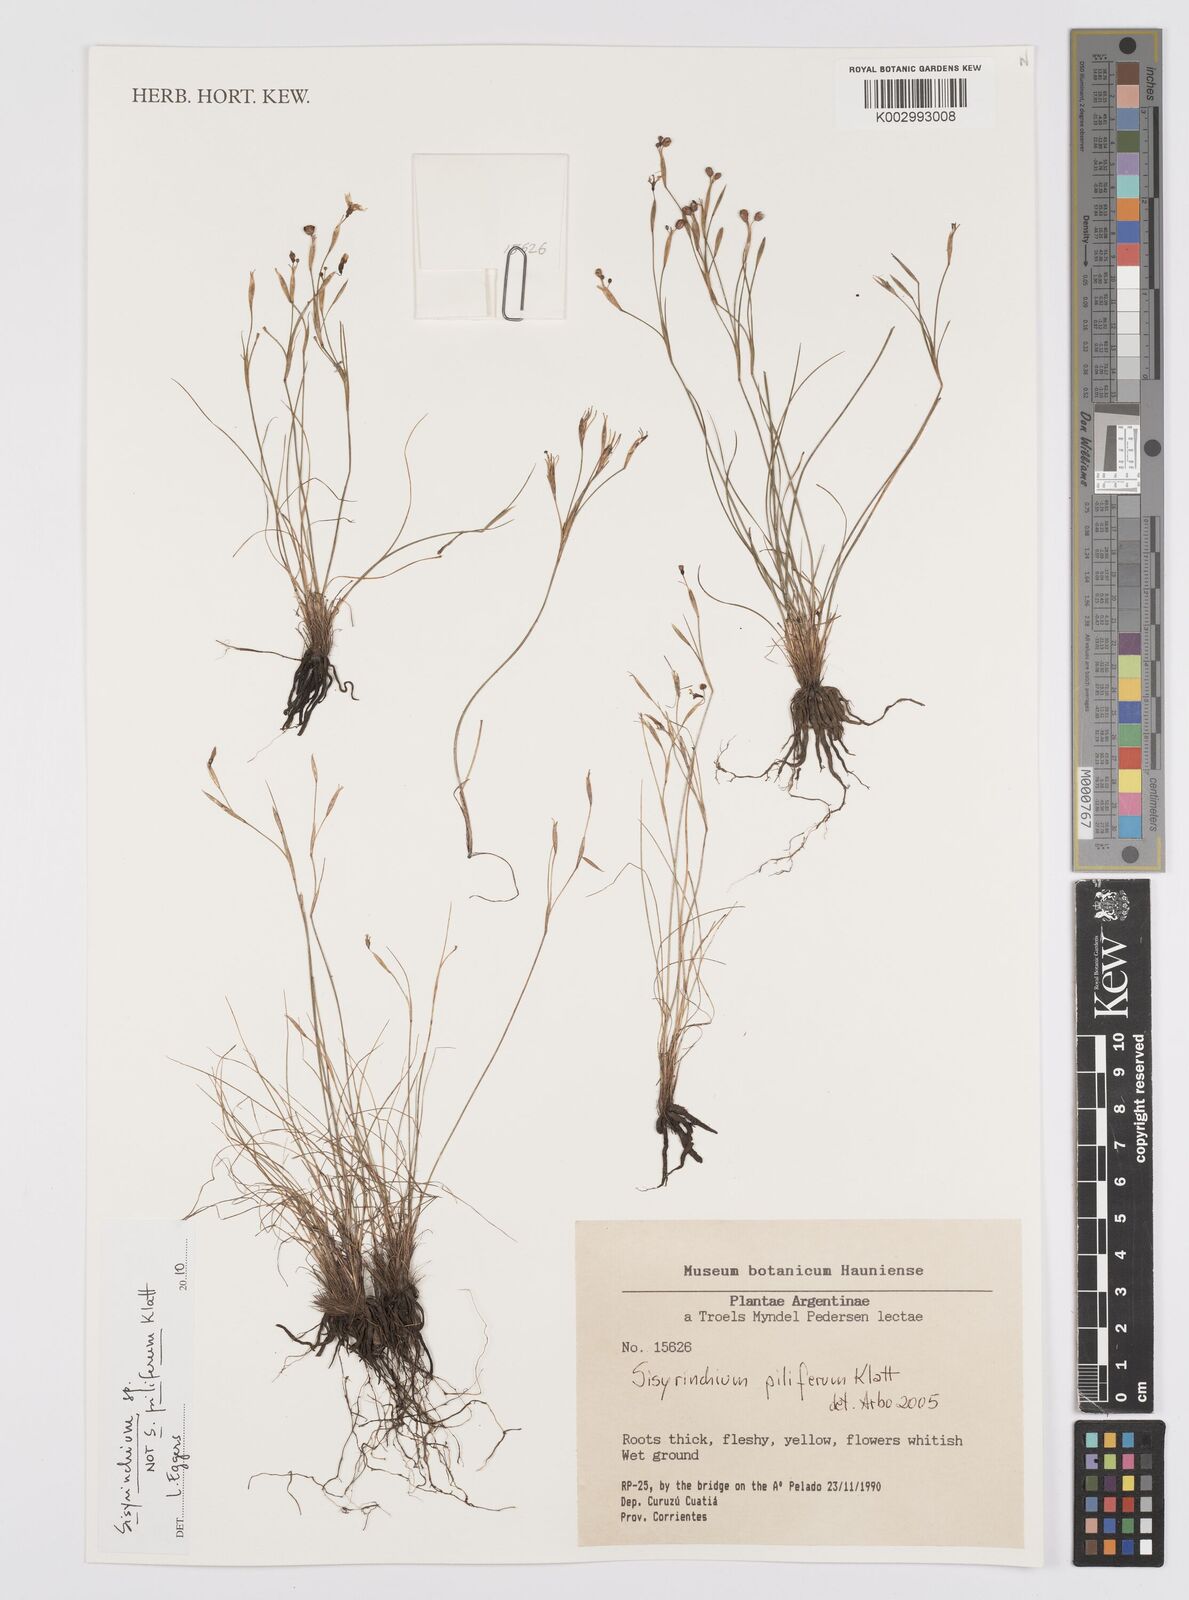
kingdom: Plantae
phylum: Tracheophyta
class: Liliopsida
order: Asparagales
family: Iridaceae
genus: Sisyrinchium
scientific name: Sisyrinchium
